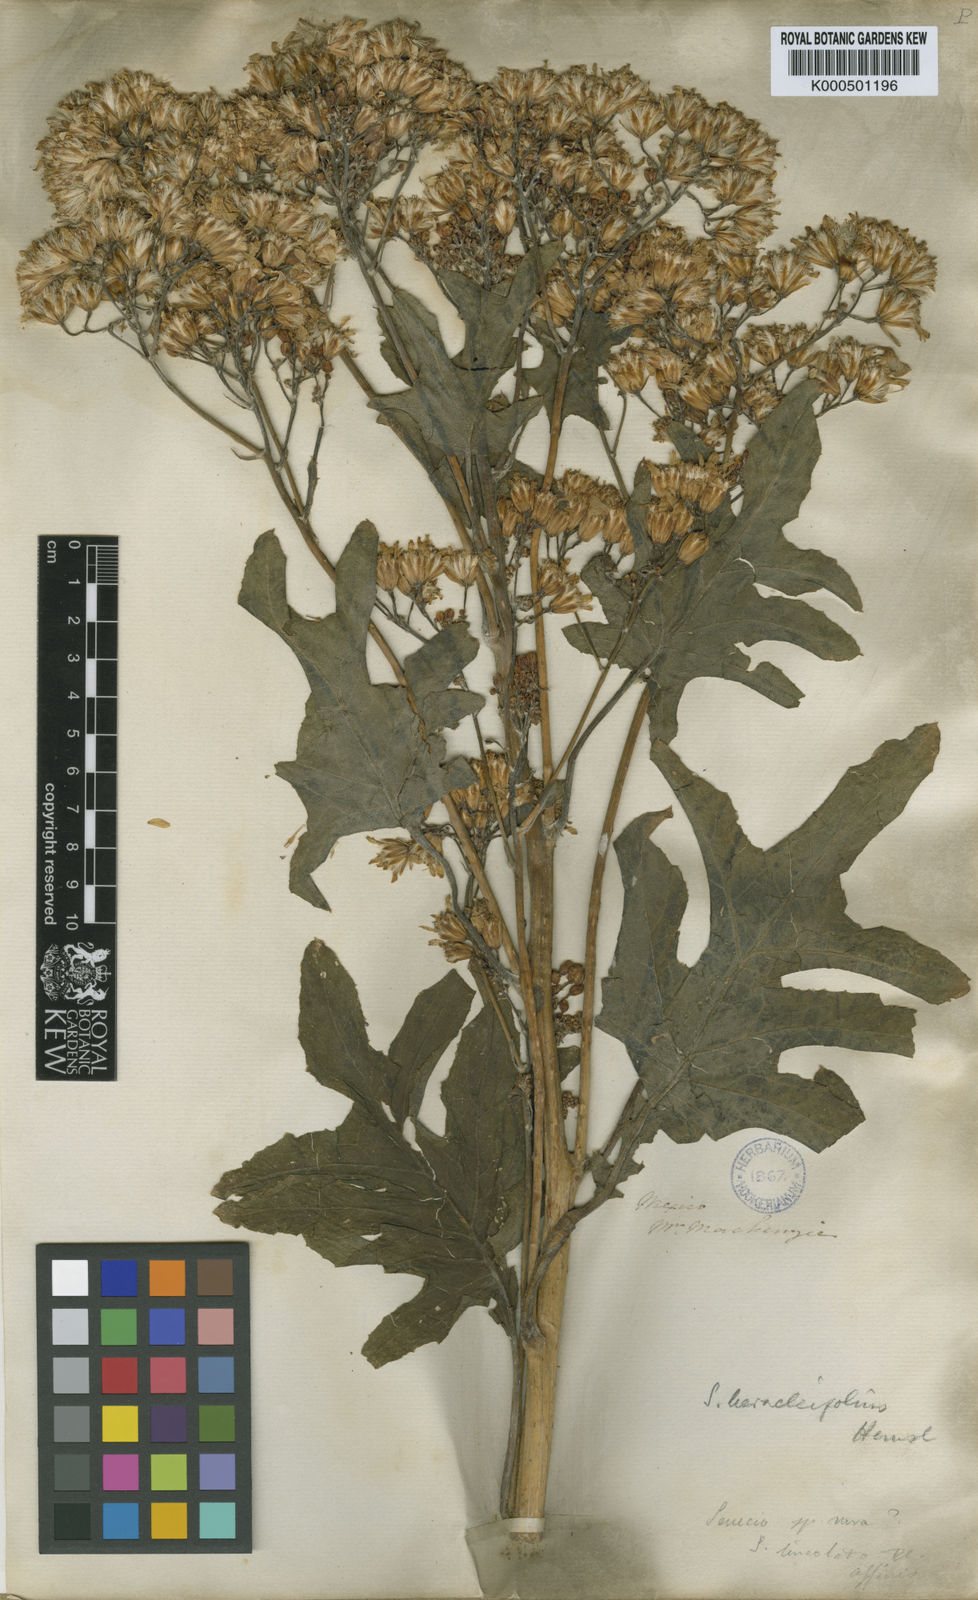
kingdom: Plantae
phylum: Tracheophyta
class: Magnoliopsida
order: Asterales
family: Asteraceae
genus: Roldana
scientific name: Roldana heracleifolia
